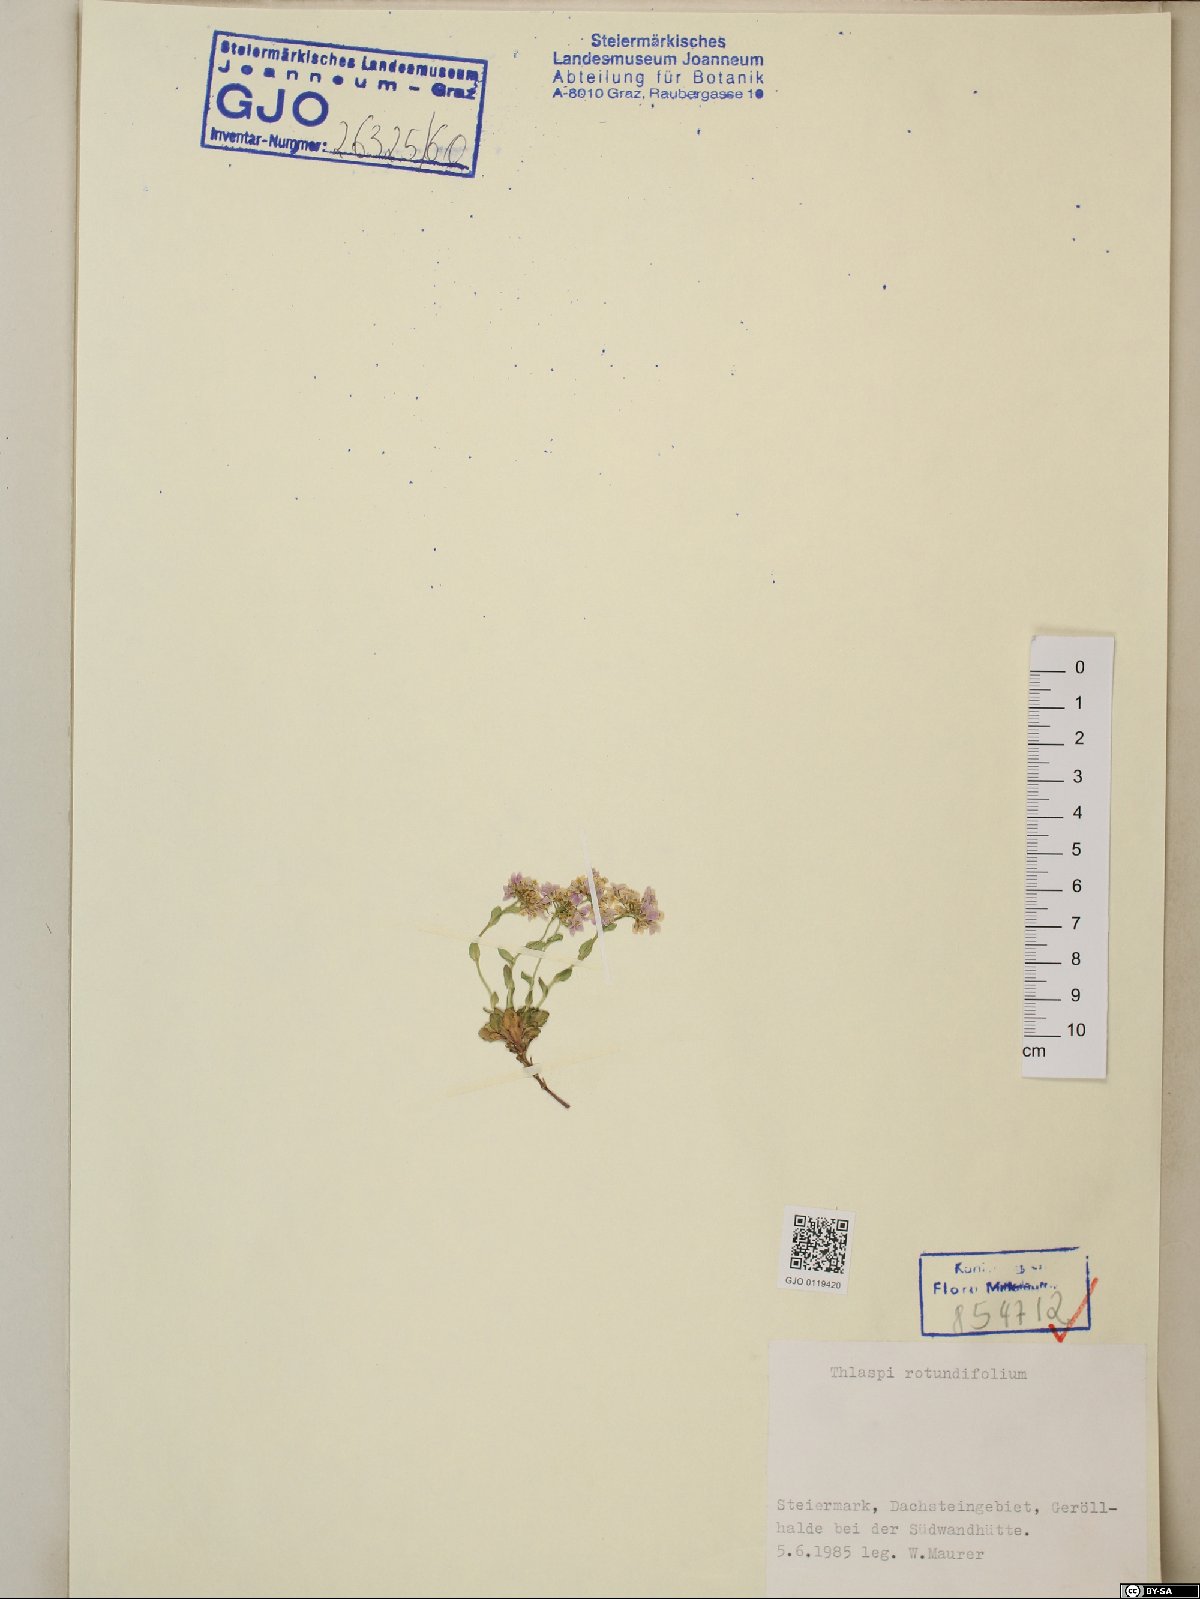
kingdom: Plantae
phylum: Tracheophyta
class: Magnoliopsida
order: Brassicales
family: Brassicaceae
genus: Noccaea
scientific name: Noccaea rotundifolia
